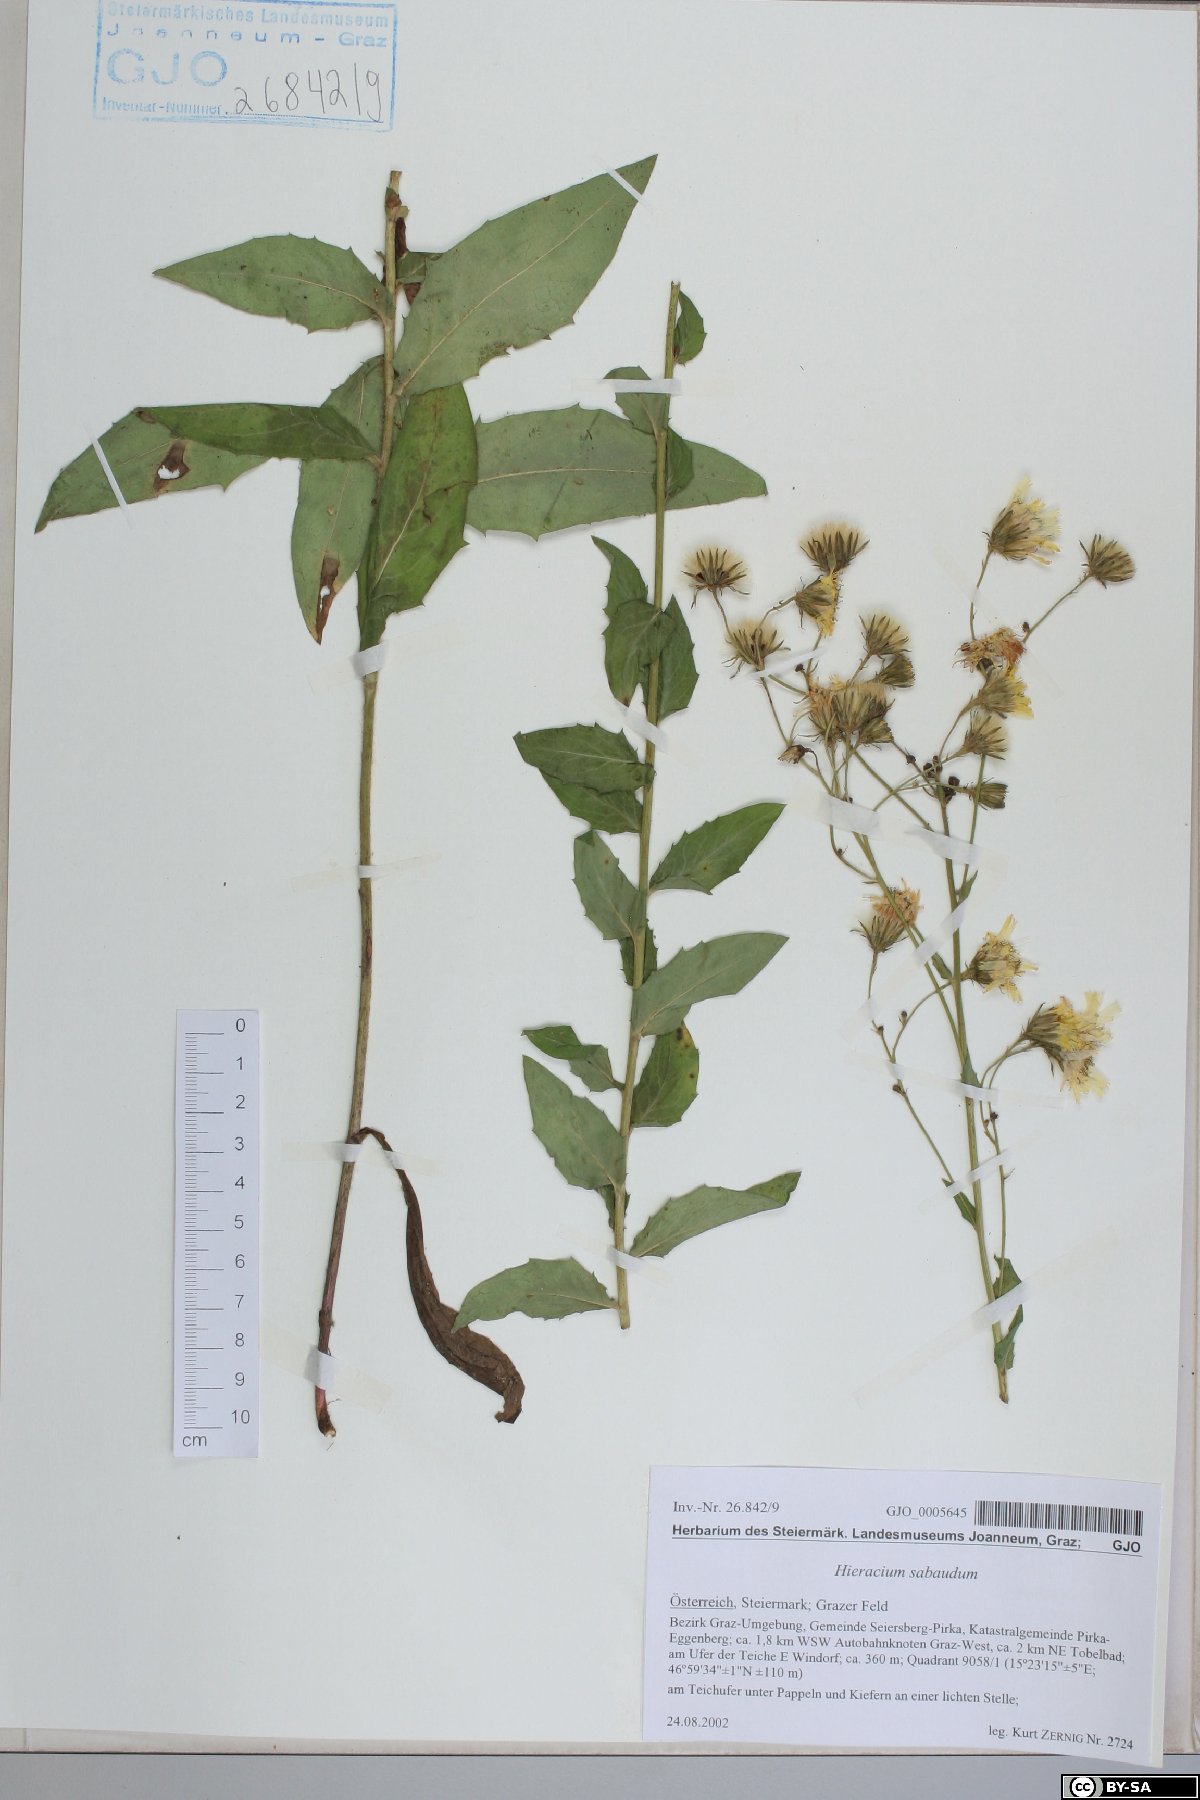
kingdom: Plantae
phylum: Tracheophyta
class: Magnoliopsida
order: Asterales
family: Asteraceae
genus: Hieracium
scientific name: Hieracium sabaudum
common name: New england hawkweed
